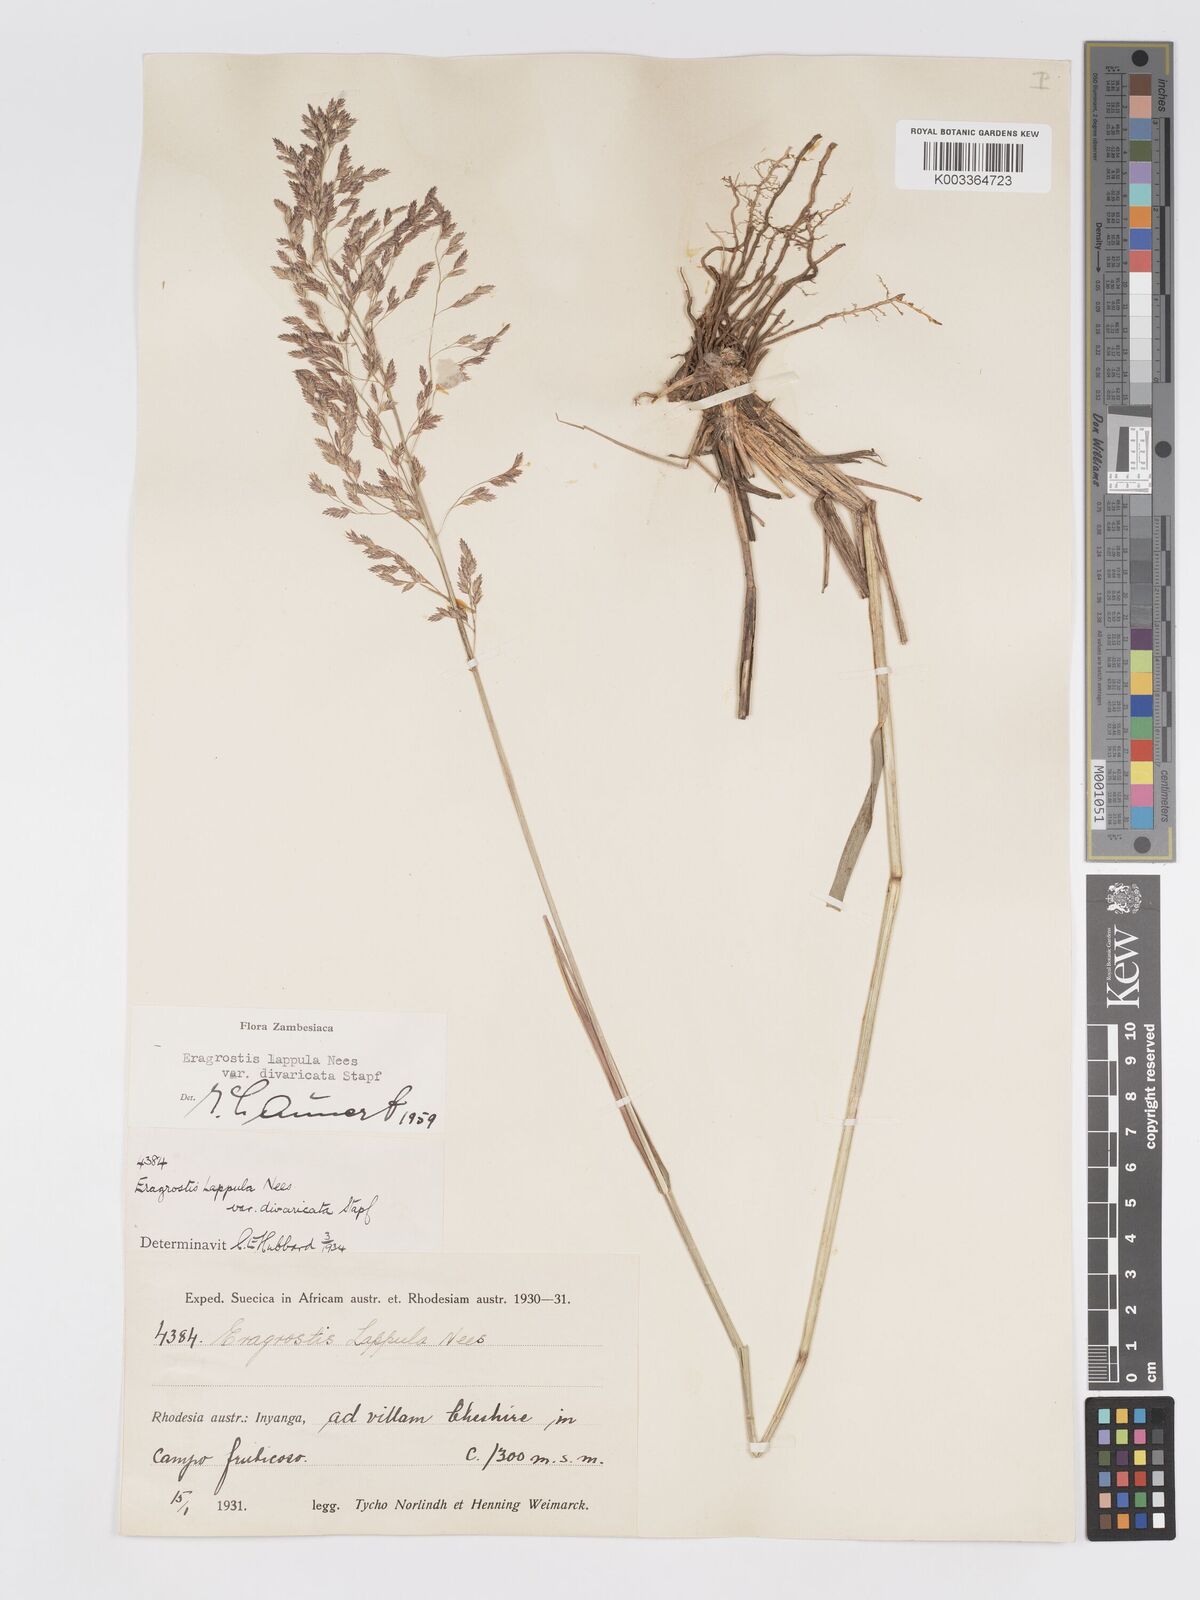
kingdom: Plantae
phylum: Tracheophyta
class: Liliopsida
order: Poales
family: Poaceae
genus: Eragrostis
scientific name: Eragrostis lappula
